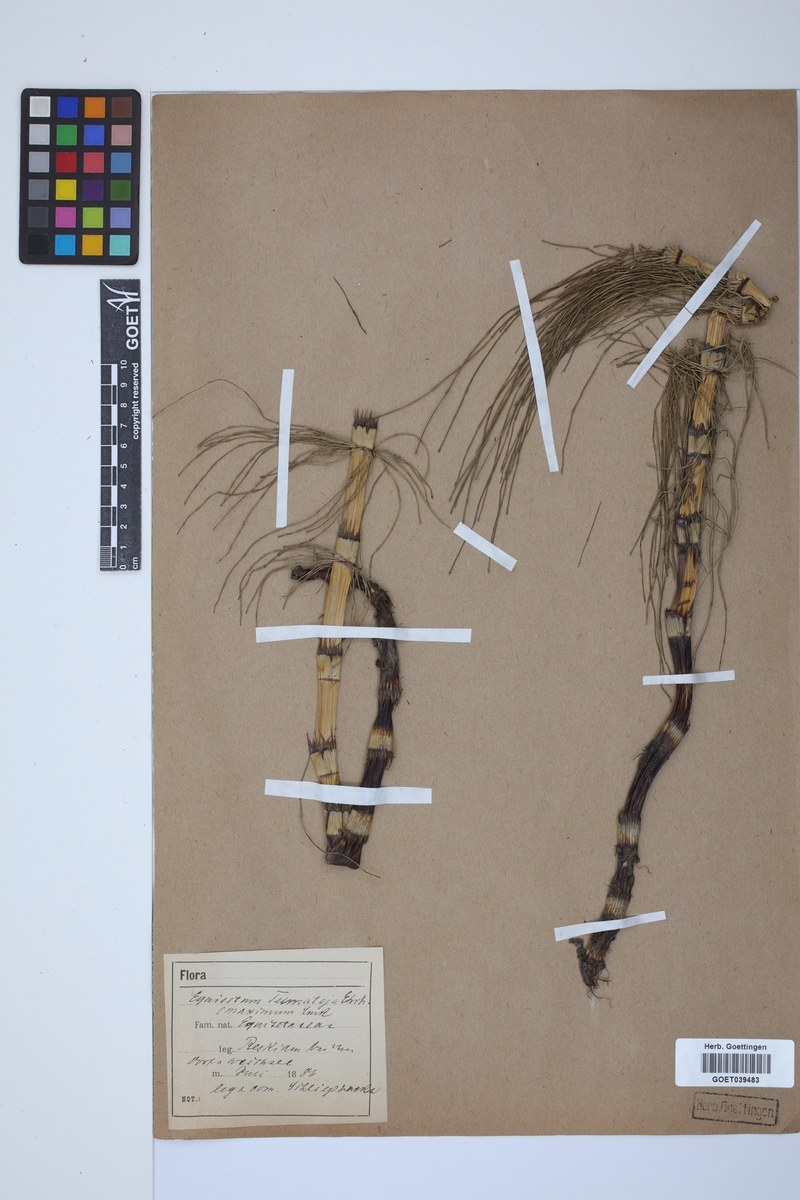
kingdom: Plantae
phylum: Tracheophyta
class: Polypodiopsida
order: Equisetales
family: Equisetaceae
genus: Equisetum
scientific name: Equisetum telmateia
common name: Great horsetail
